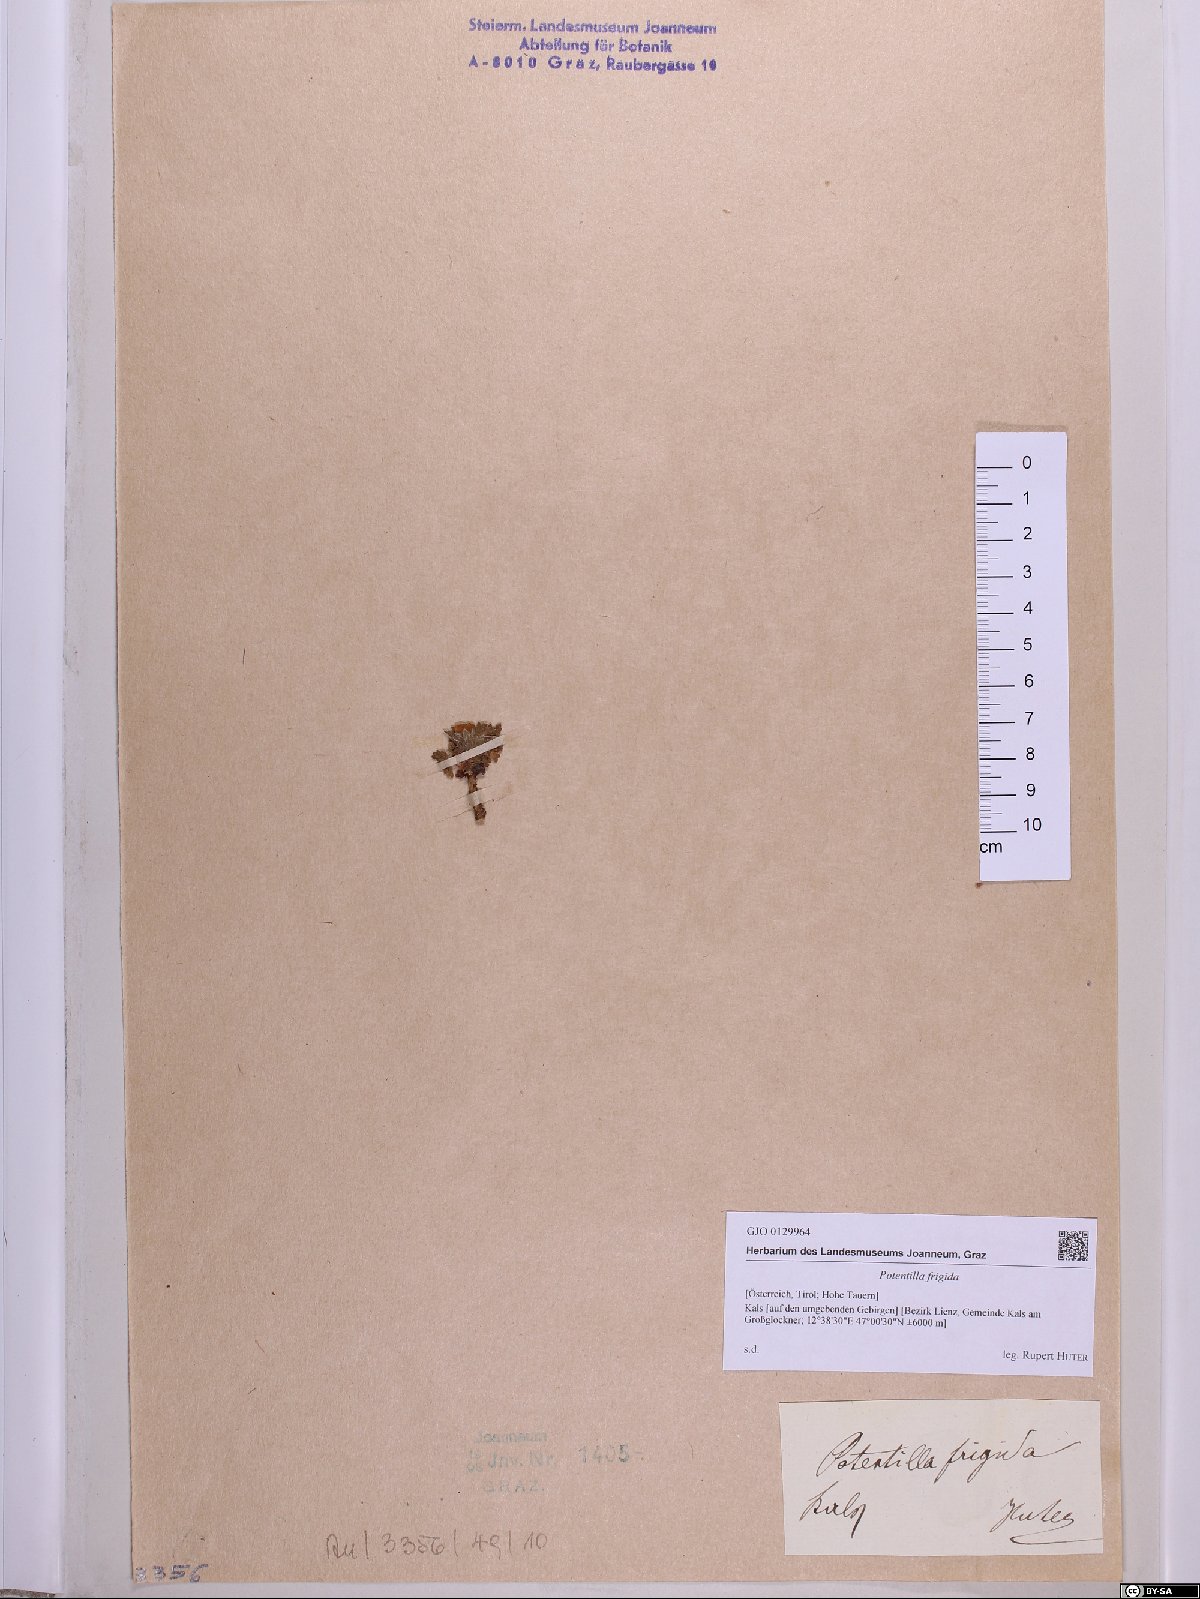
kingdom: Plantae
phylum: Tracheophyta
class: Magnoliopsida
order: Rosales
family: Rosaceae
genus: Potentilla
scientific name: Potentilla frigida
